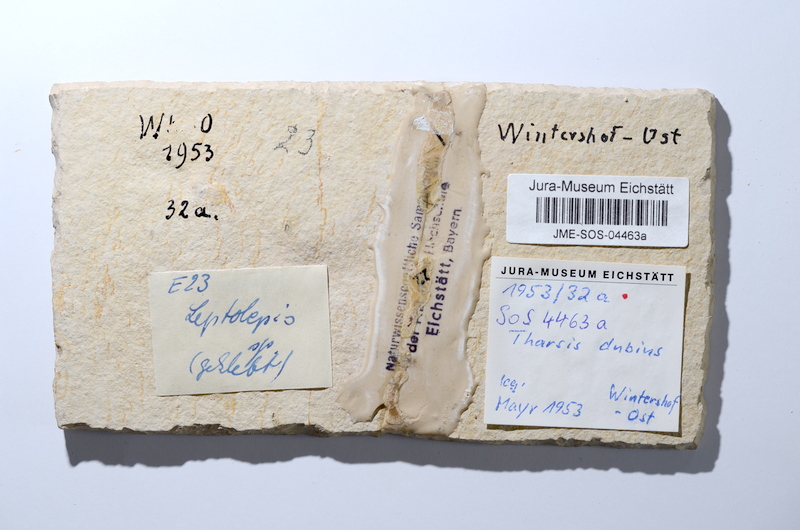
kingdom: Animalia
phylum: Chordata
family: Ascalaboidae
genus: Tharsis
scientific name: Tharsis dubius
